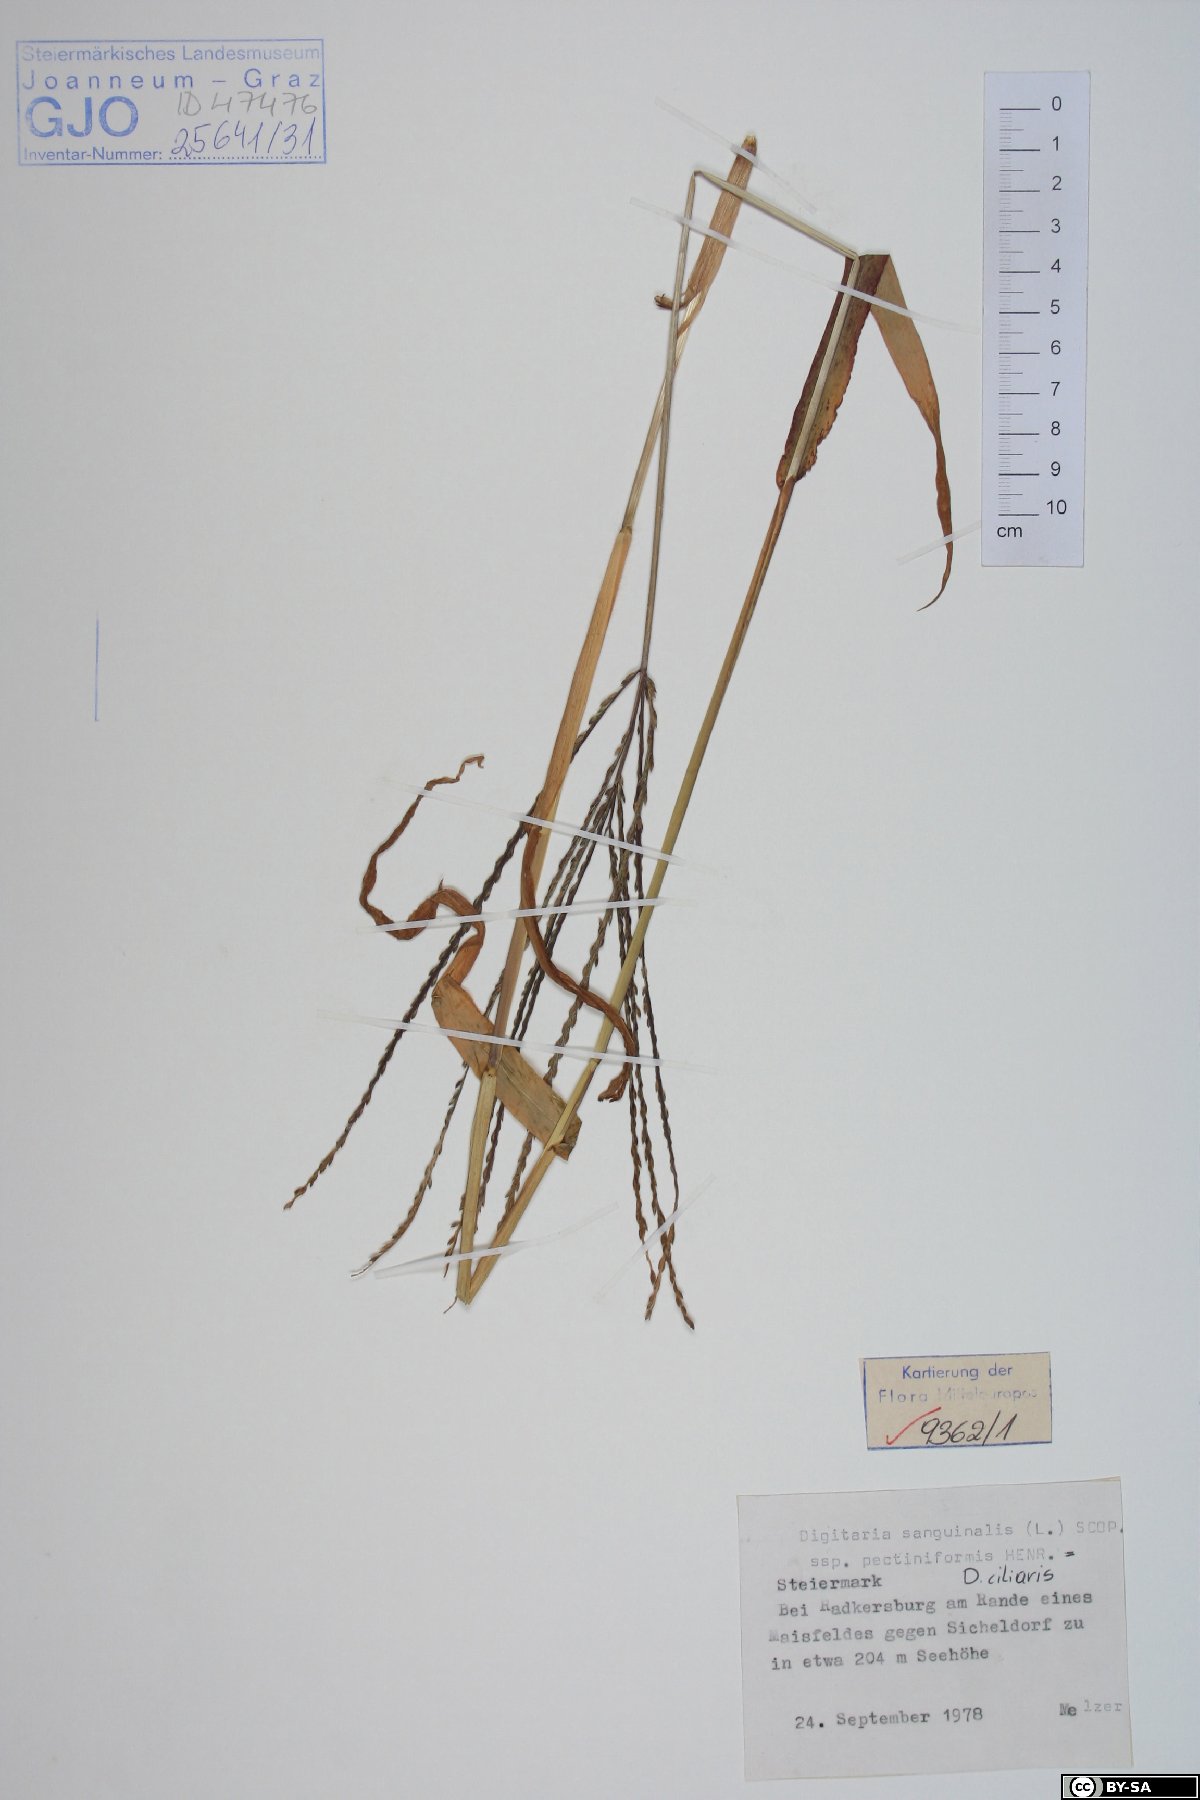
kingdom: Plantae
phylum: Tracheophyta
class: Liliopsida
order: Poales
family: Poaceae
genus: Digitaria
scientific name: Digitaria sanguinalis
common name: Hairy crabgrass
